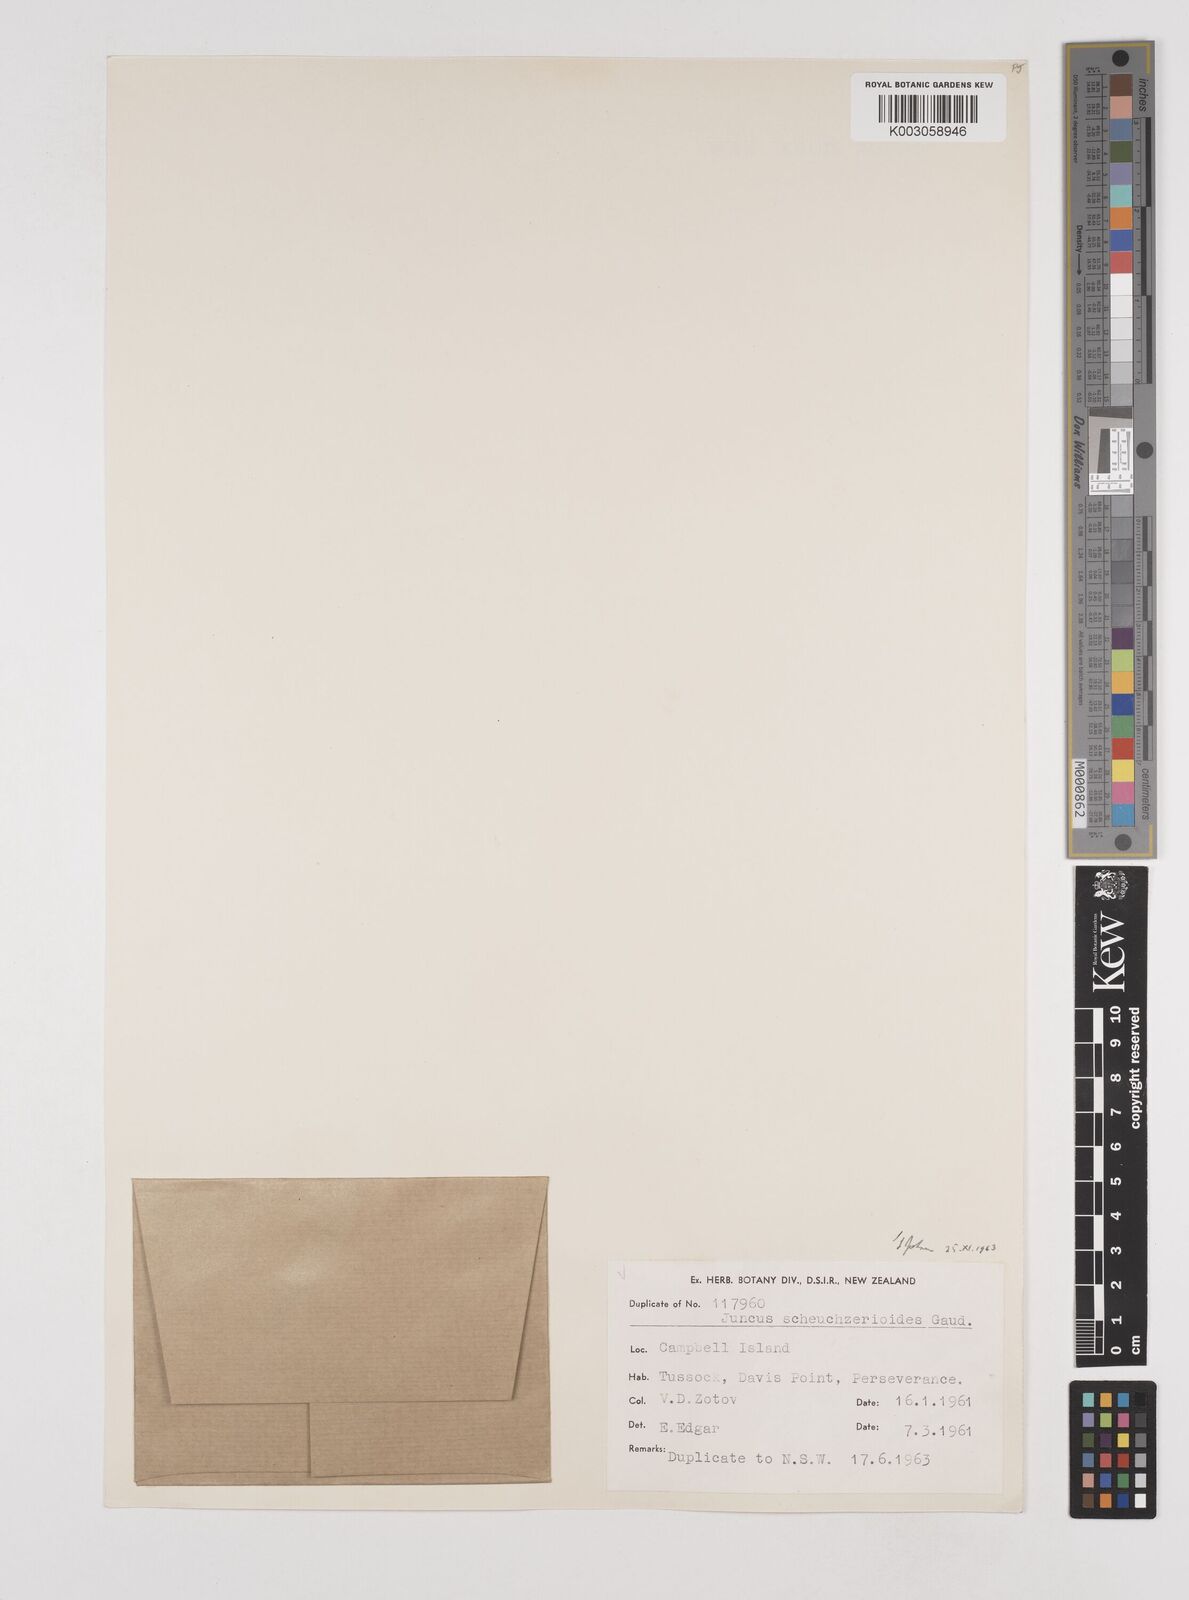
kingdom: Plantae
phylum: Tracheophyta
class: Liliopsida
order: Poales
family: Juncaceae
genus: Juncus
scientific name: Juncus scheuchzerioides
